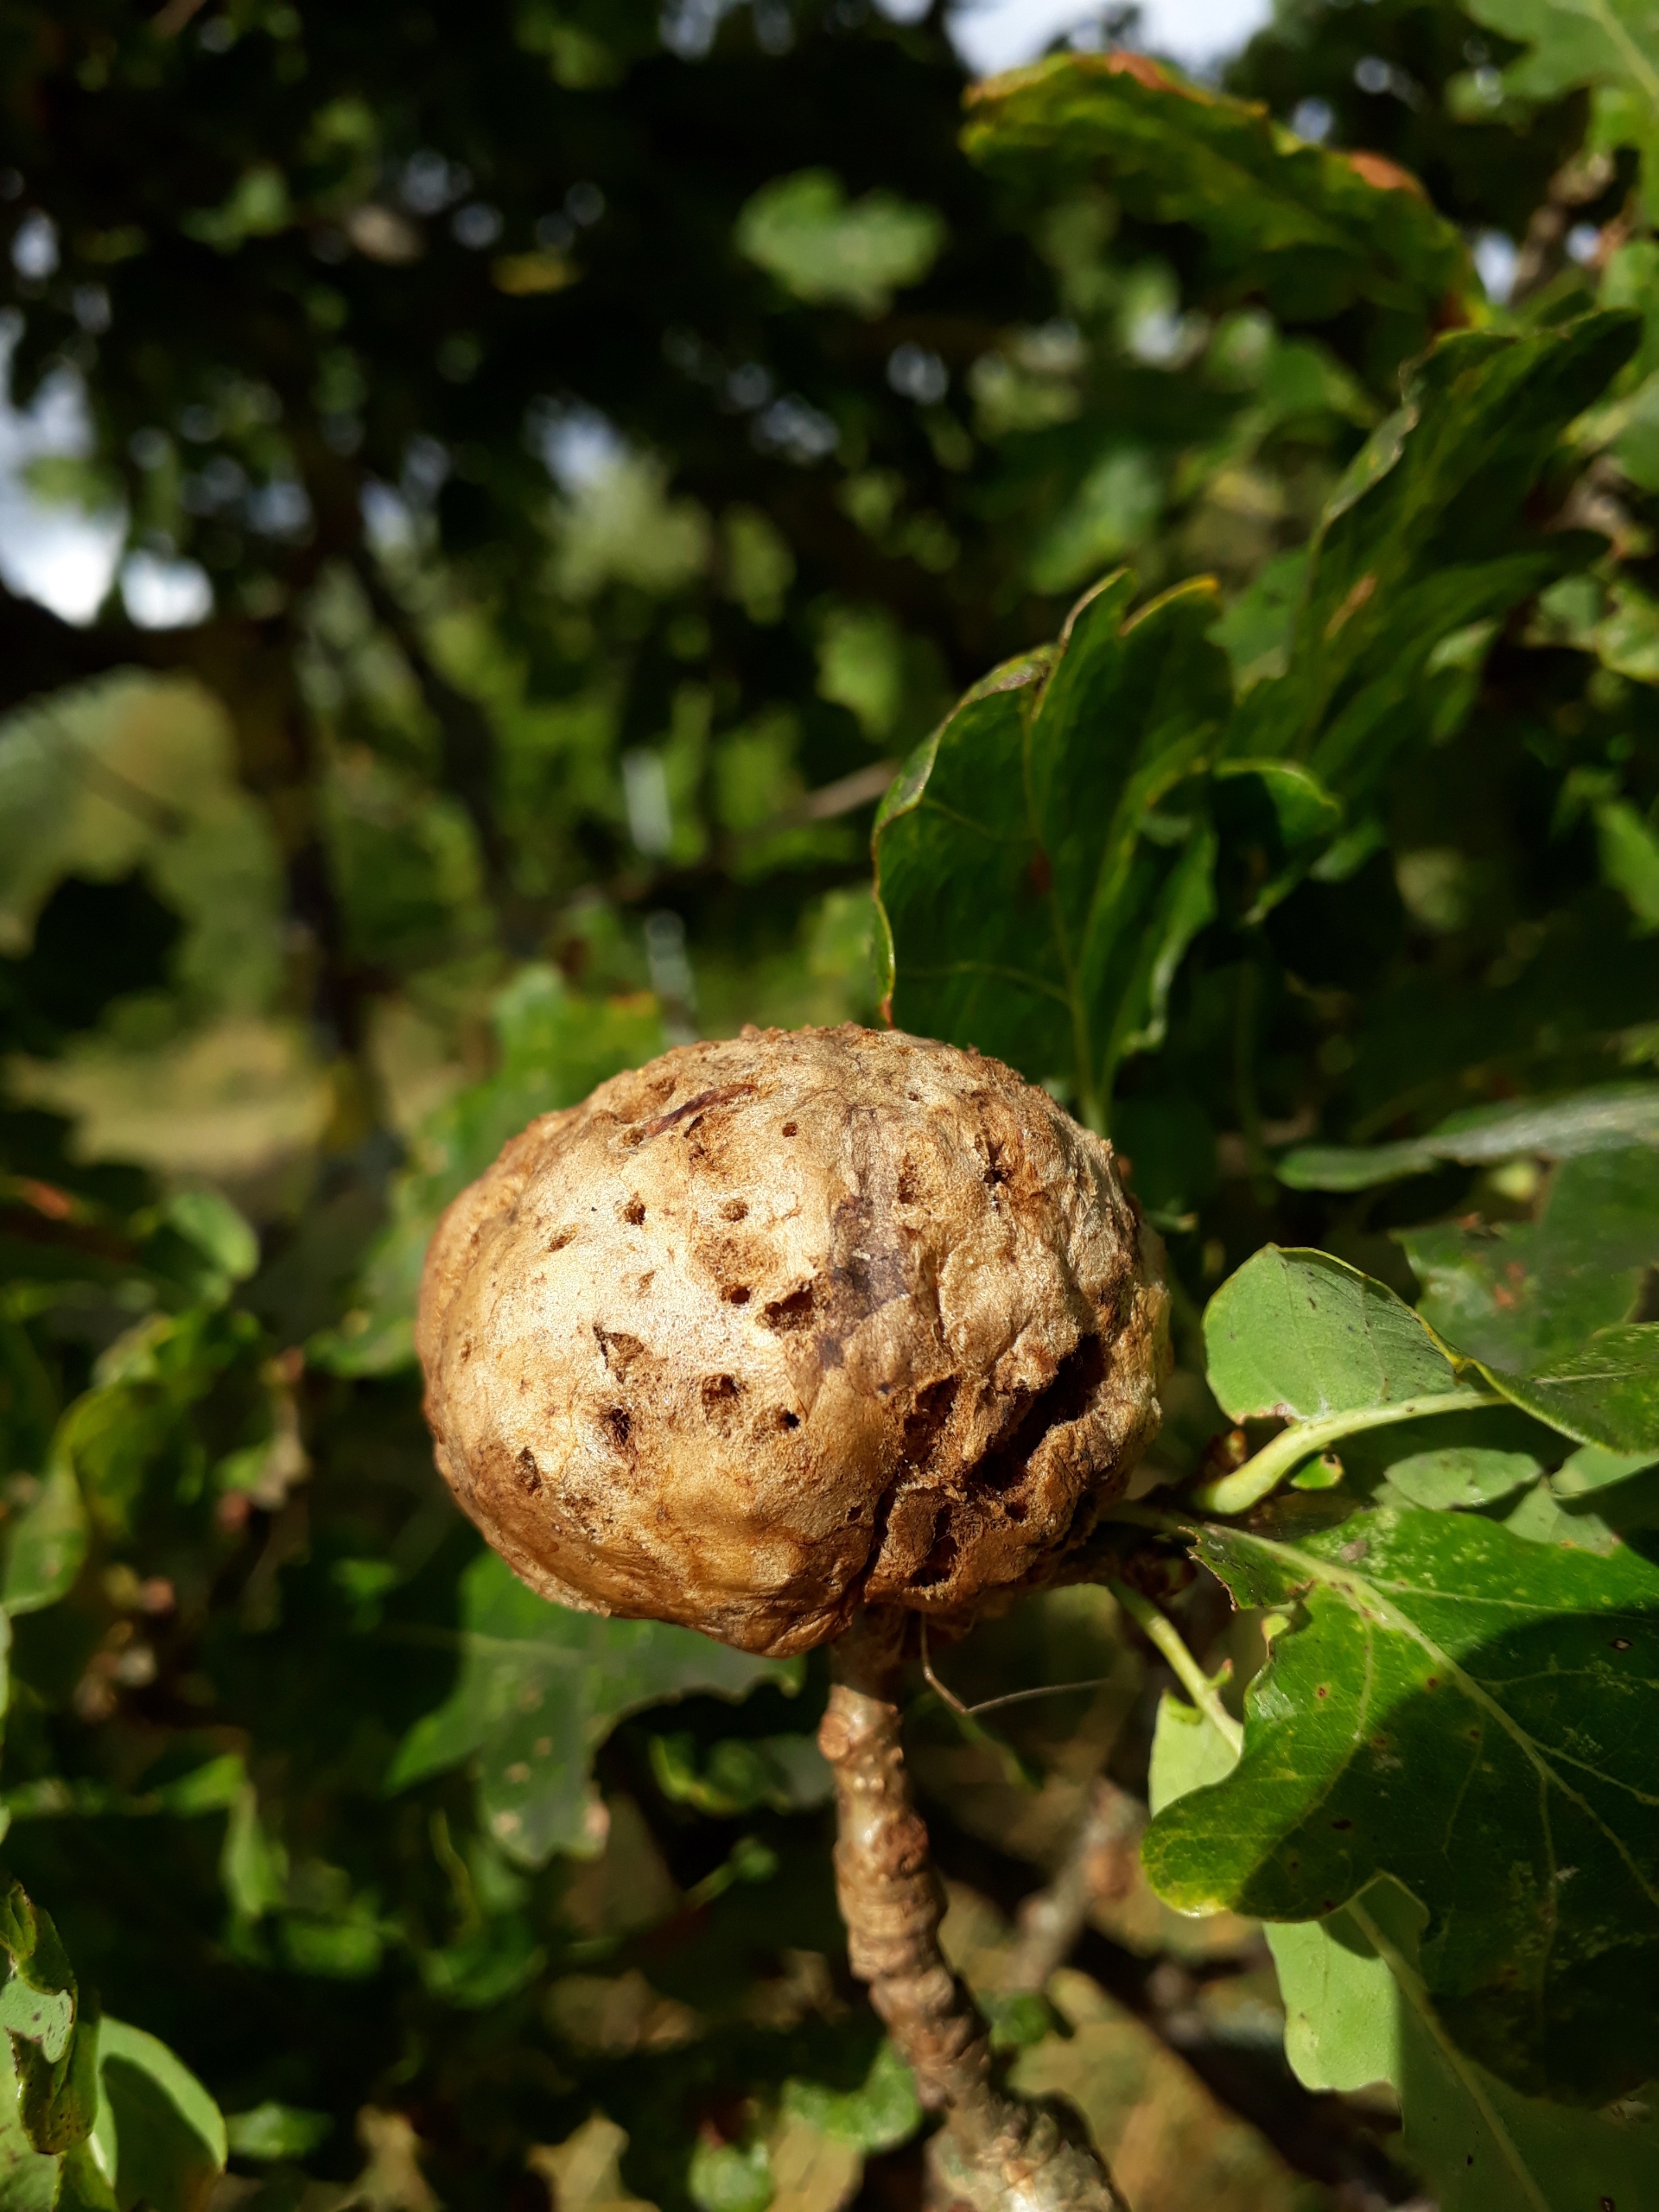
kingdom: Animalia
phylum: Arthropoda
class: Insecta
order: Hymenoptera
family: Cynipidae
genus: Biorhiza
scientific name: Biorhiza pallida
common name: Ege-kartoffelgalhveps
